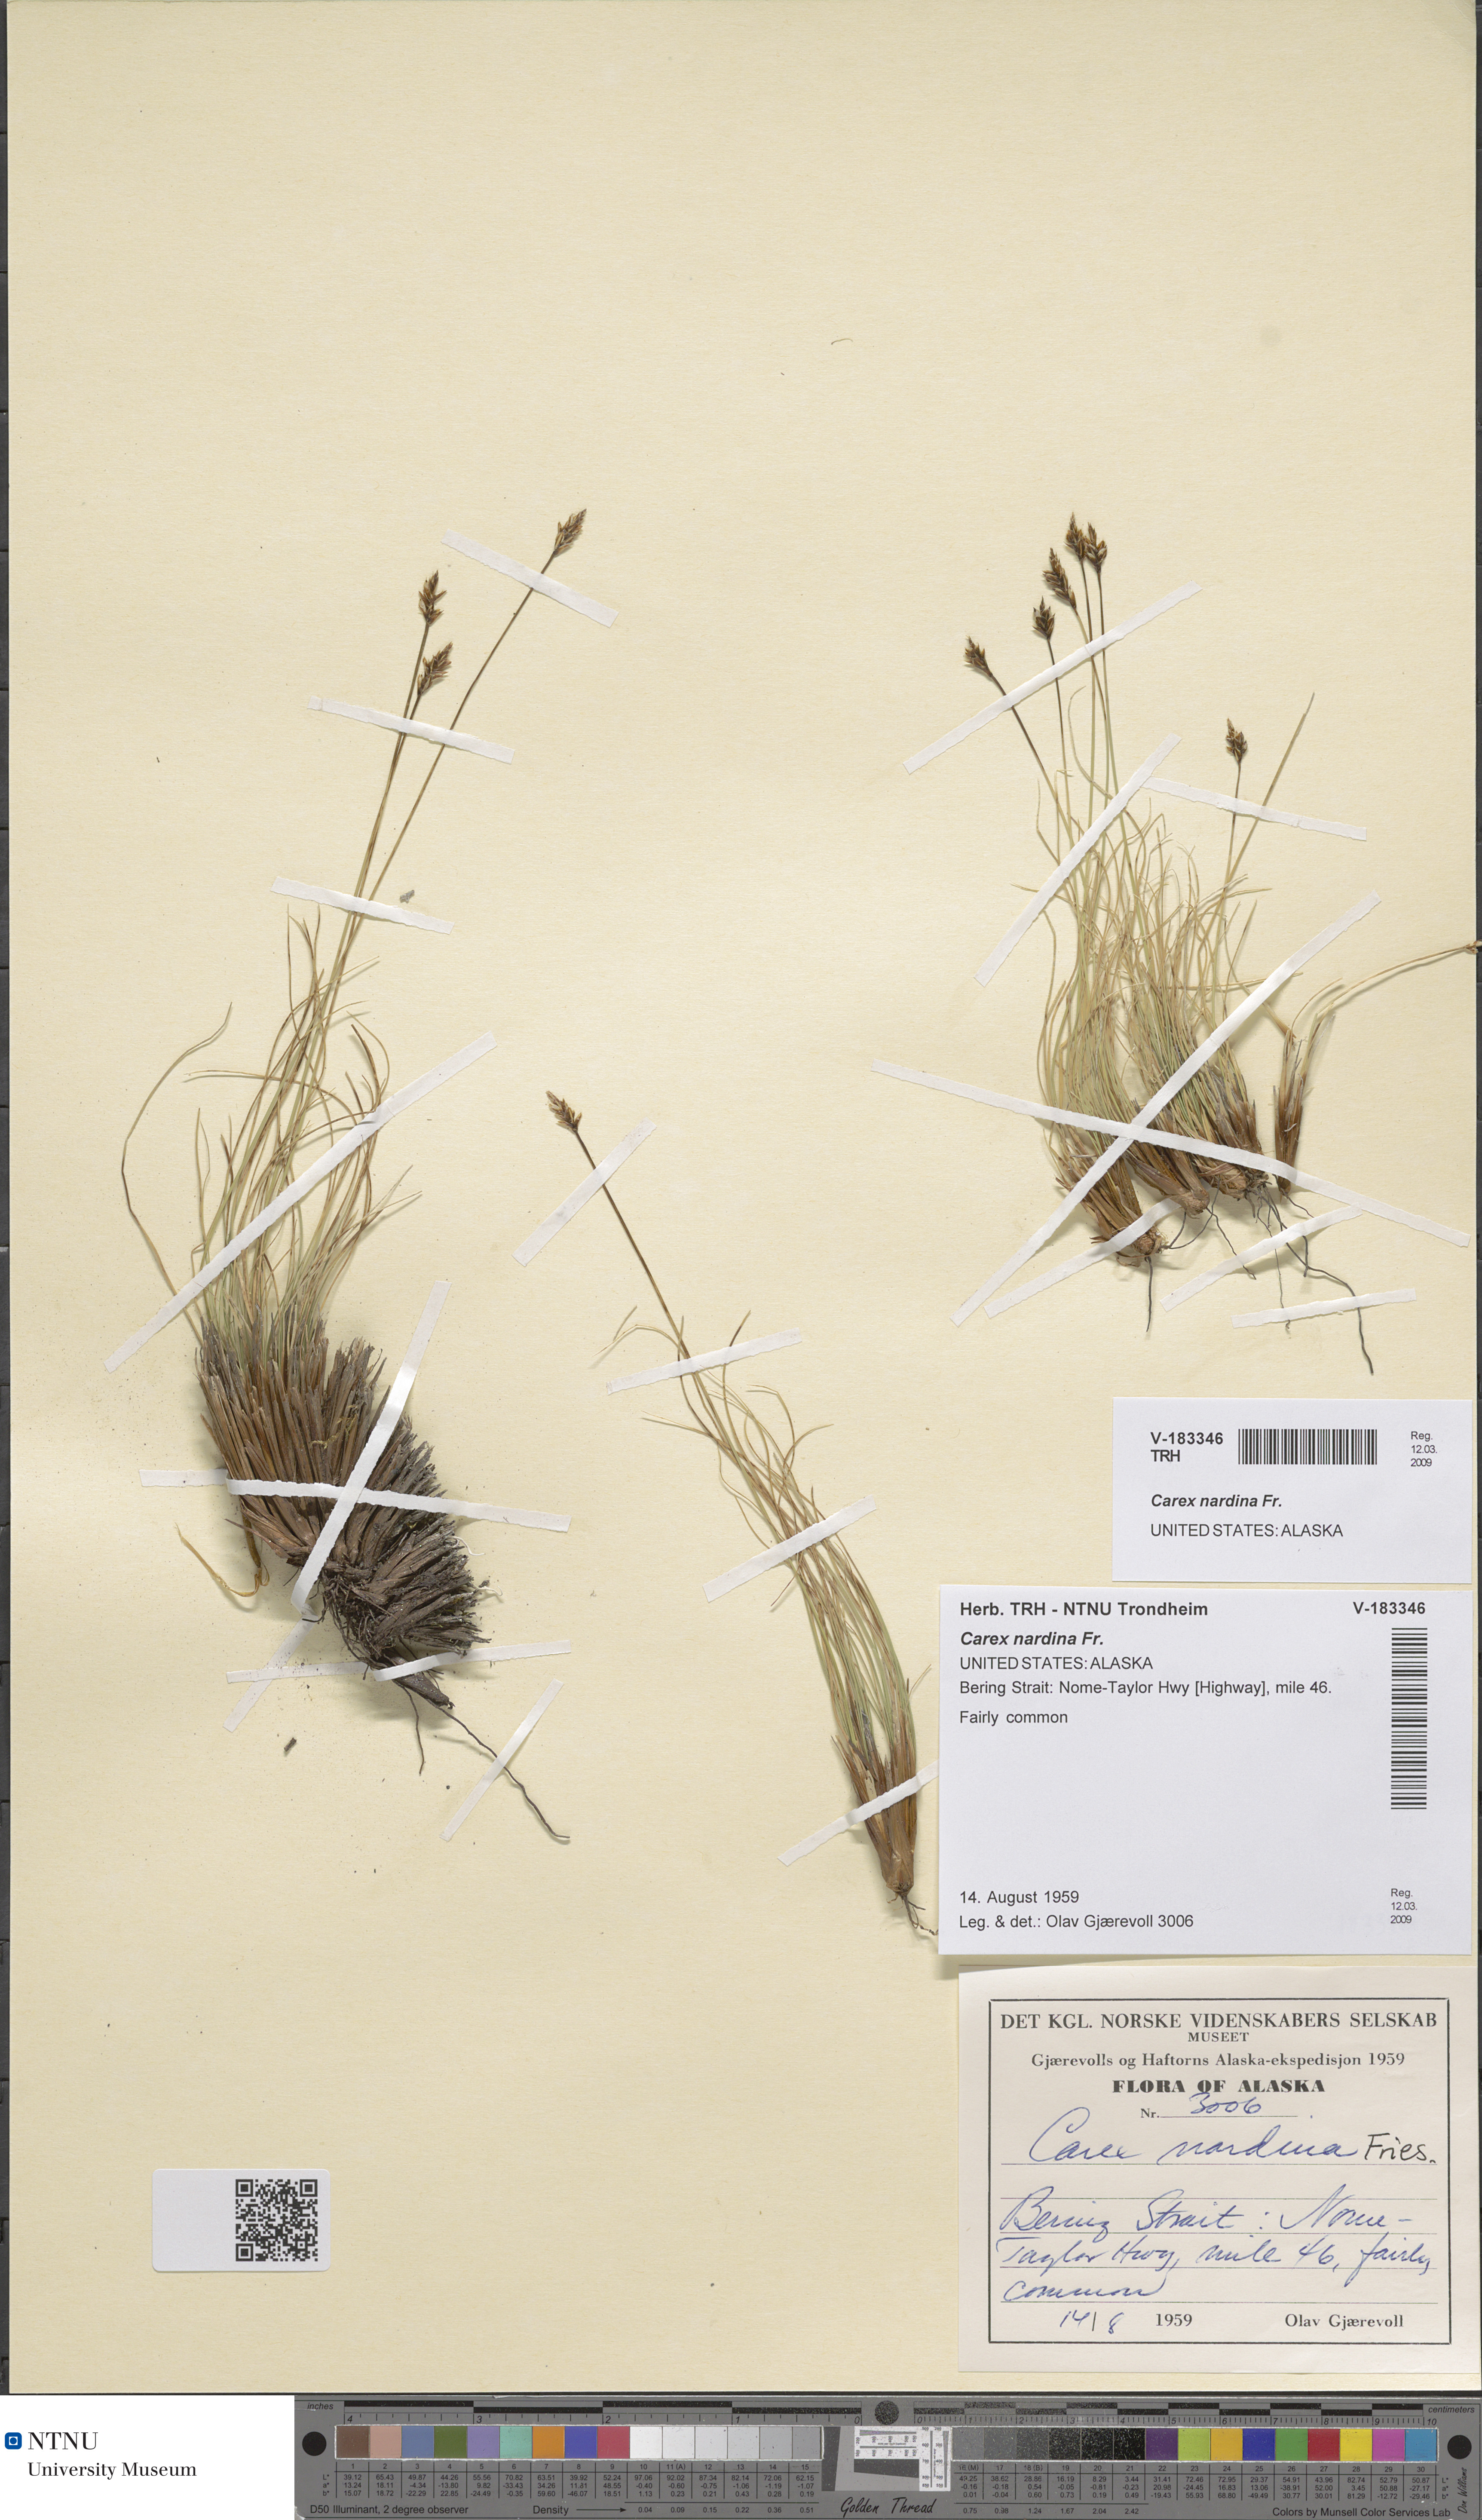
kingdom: Plantae
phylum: Tracheophyta
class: Liliopsida
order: Poales
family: Cyperaceae
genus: Carex
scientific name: Carex nardina
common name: Nard sedge
